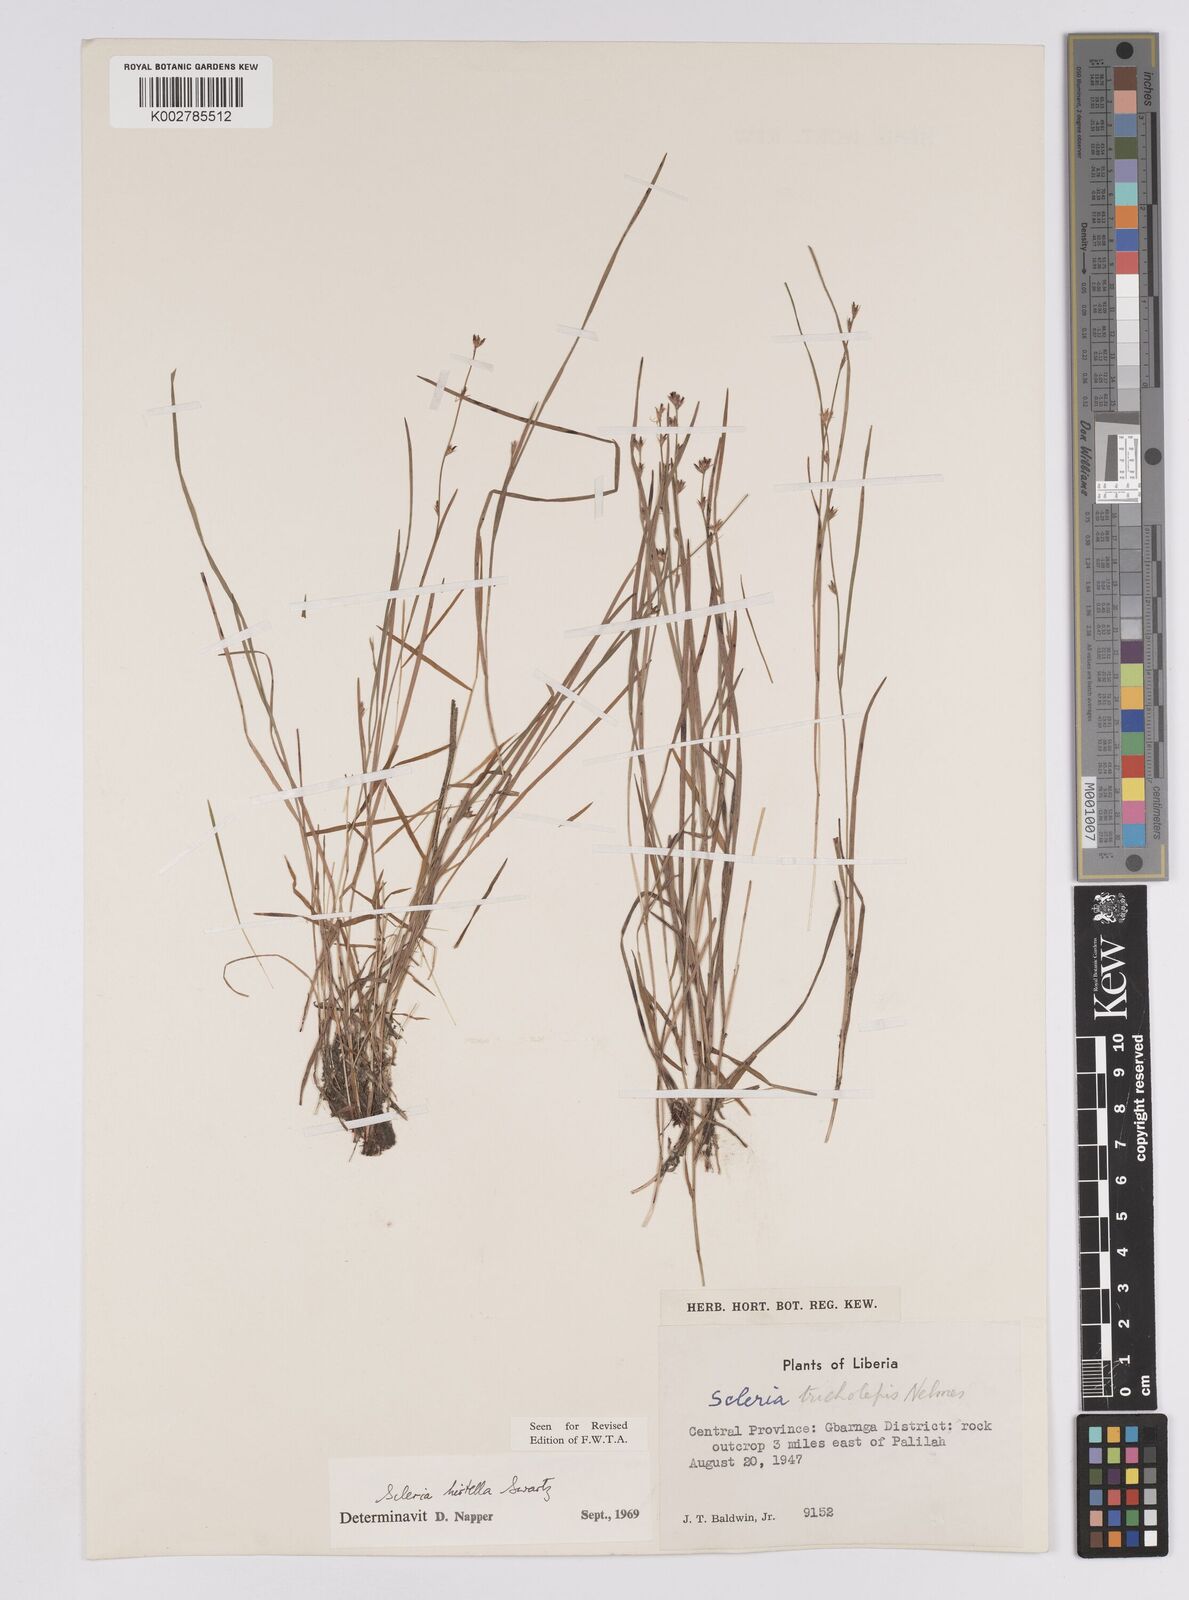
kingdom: Plantae
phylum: Tracheophyta
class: Liliopsida
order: Poales
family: Cyperaceae
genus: Scleria
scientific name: Scleria tricholepis
